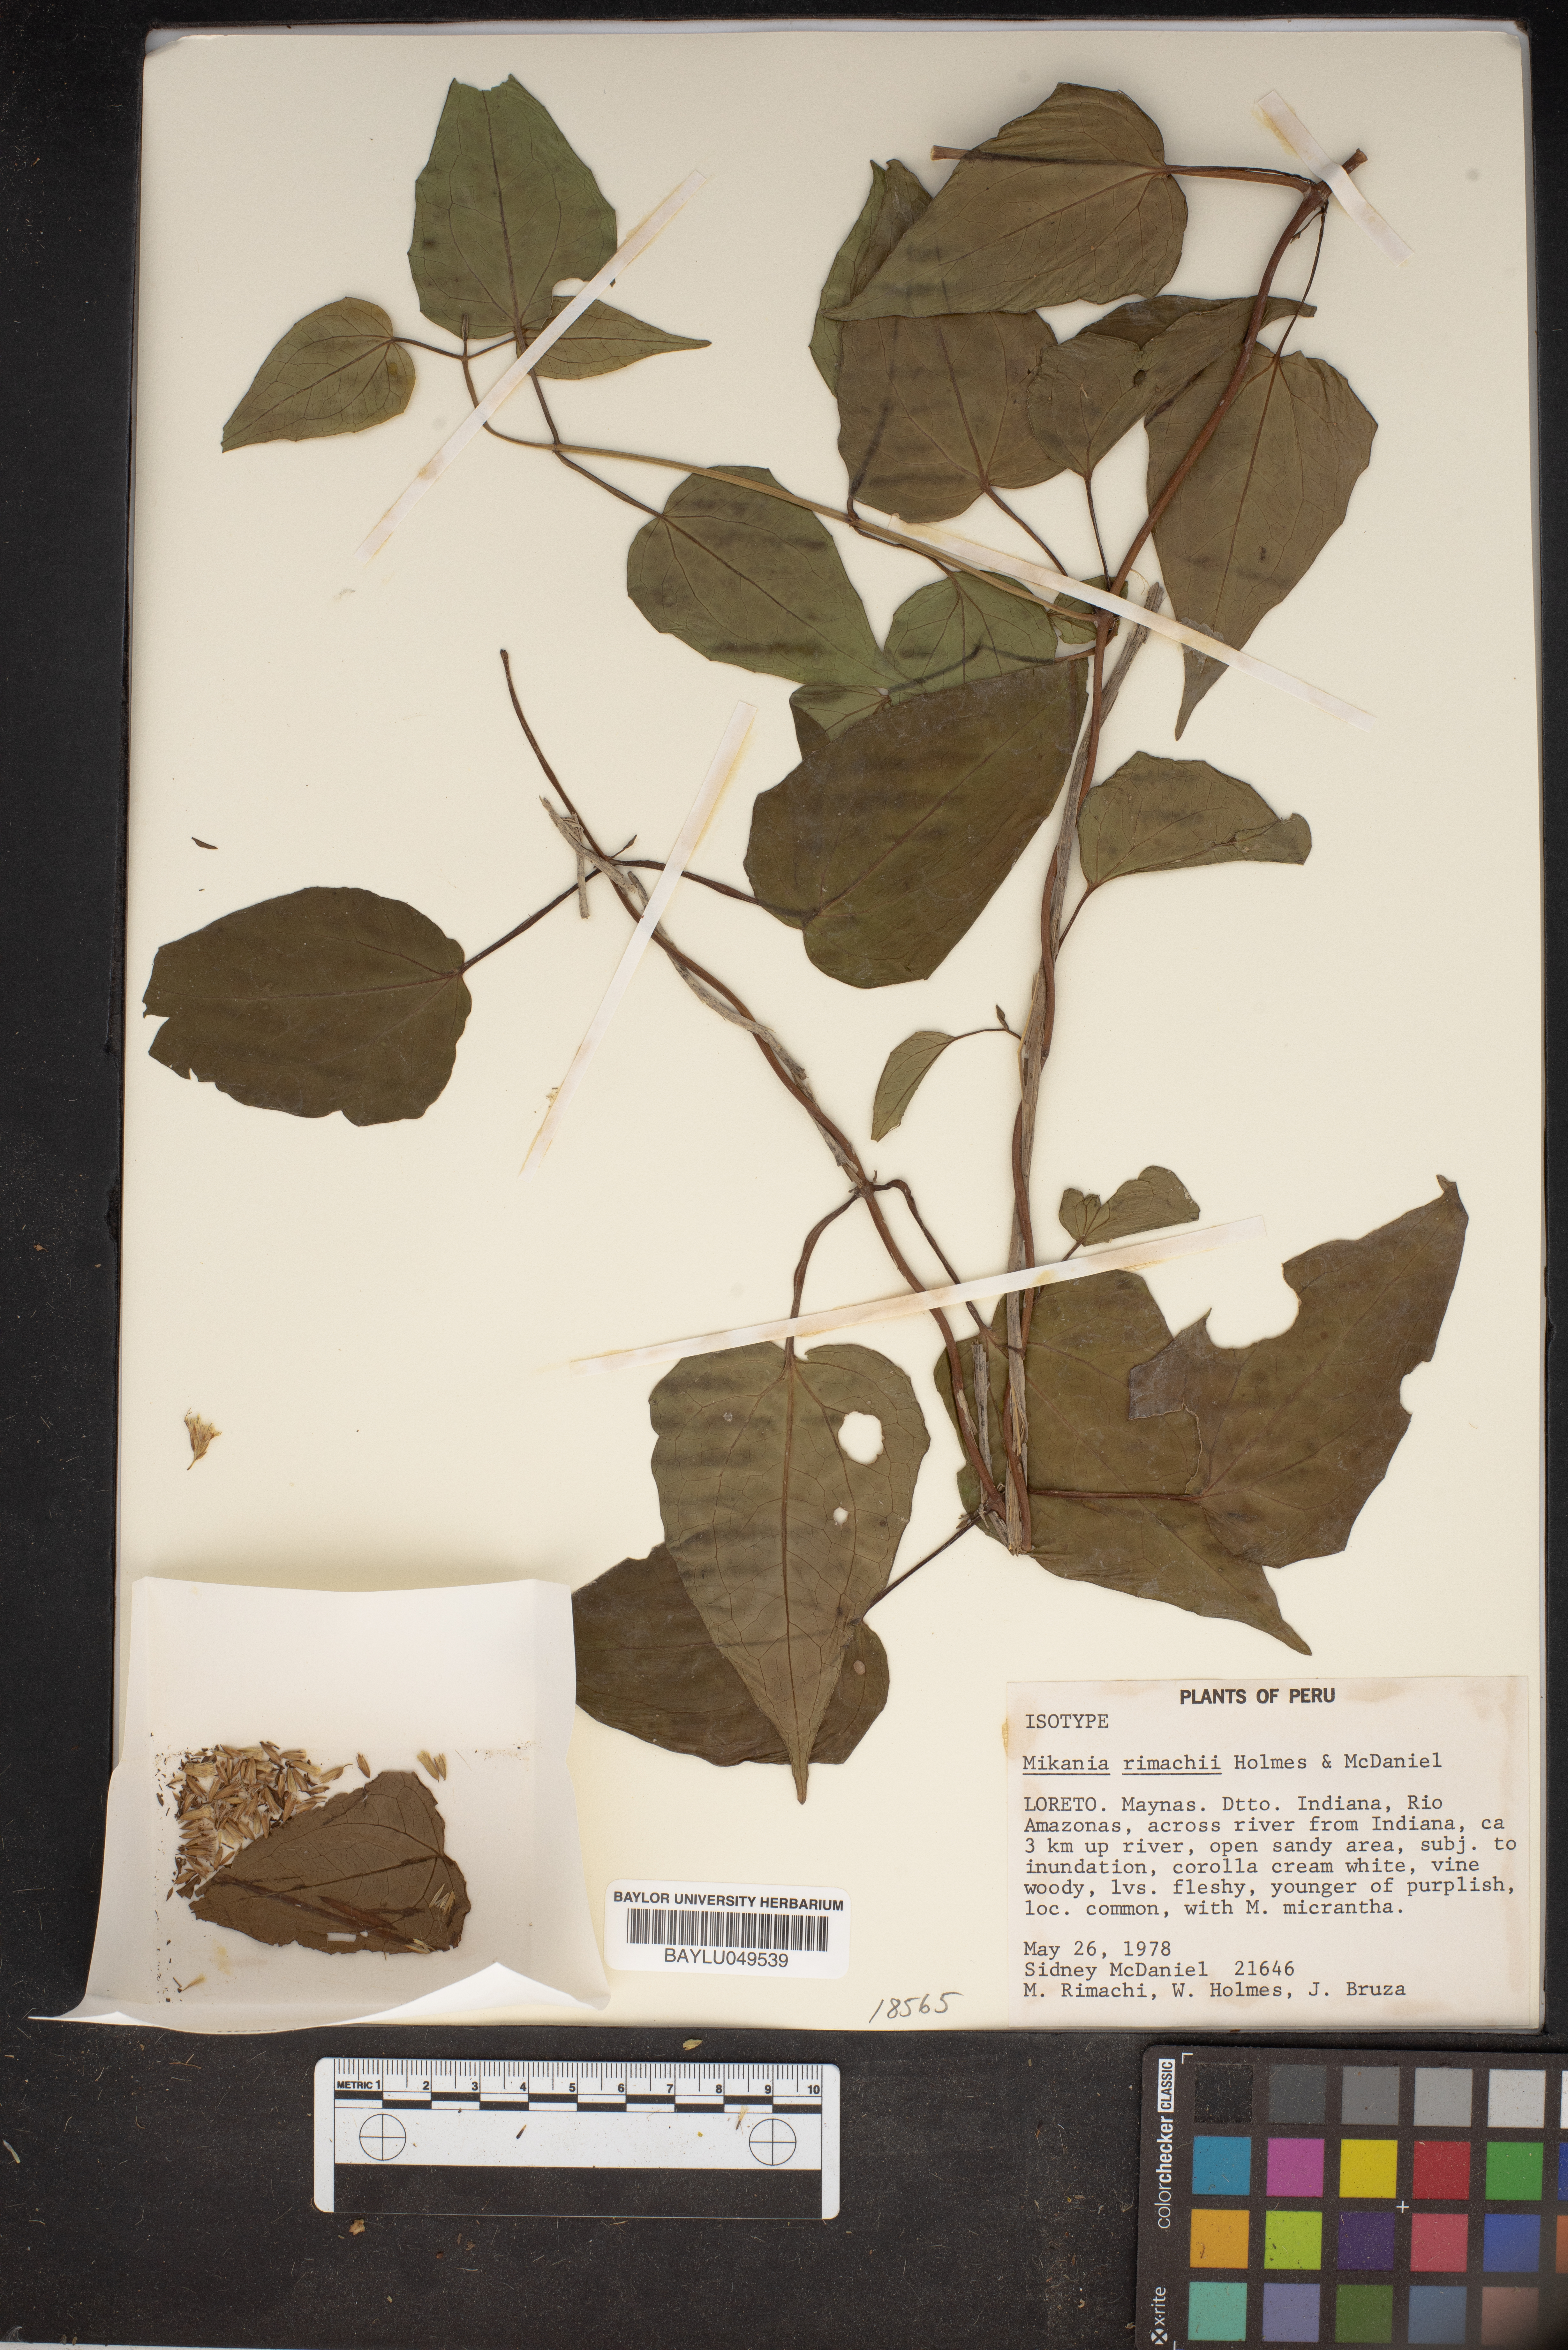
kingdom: Plantae
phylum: Tracheophyta
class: Magnoliopsida
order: Asterales
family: Asteraceae
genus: Mikania
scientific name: Mikania rimachii
